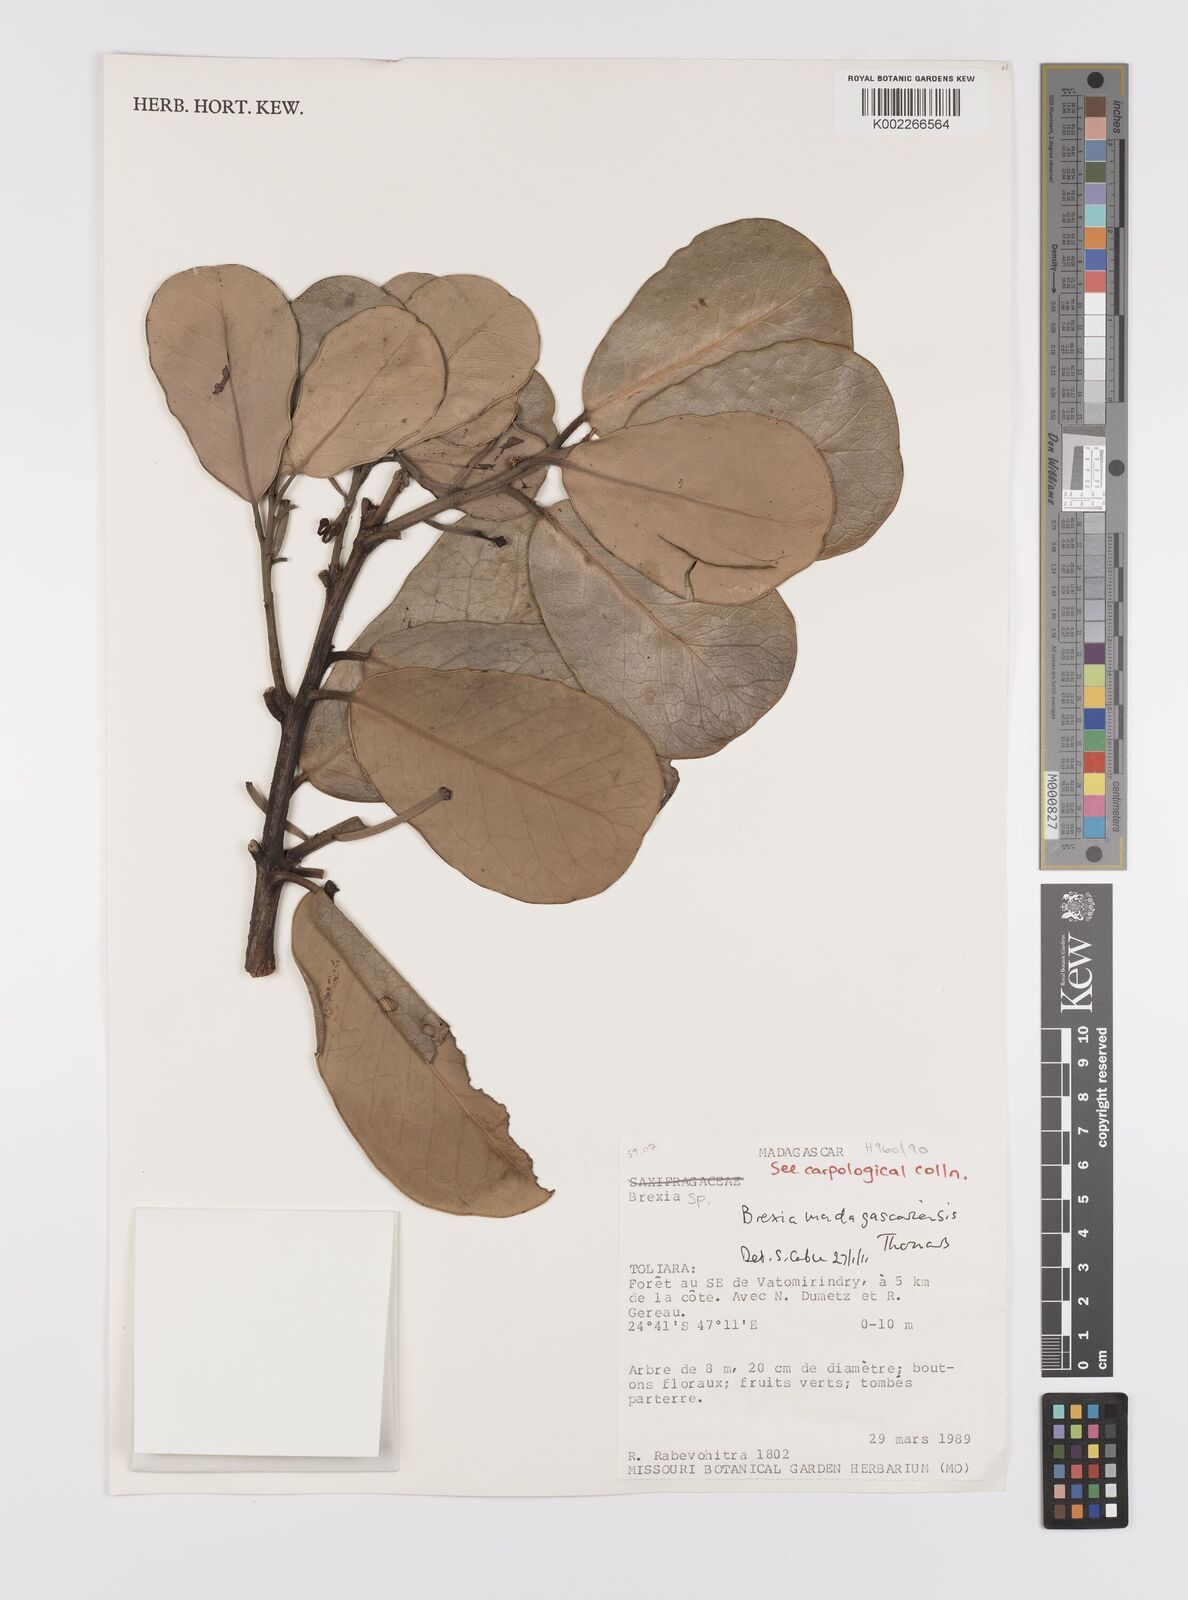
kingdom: Plantae
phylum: Tracheophyta
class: Magnoliopsida
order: Celastrales
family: Celastraceae
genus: Brexia
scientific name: Brexia madagascariensis
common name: Brexia
